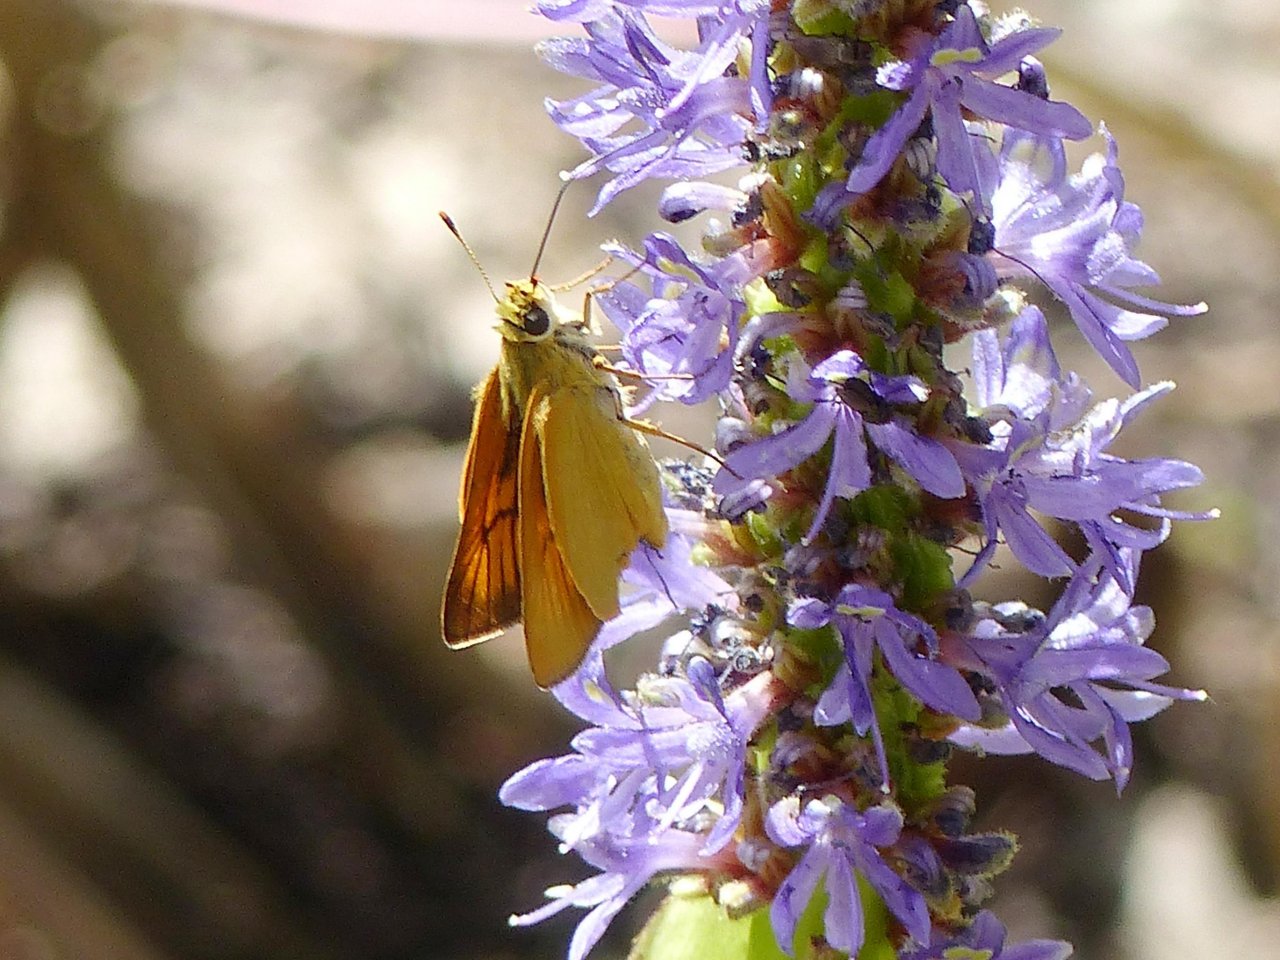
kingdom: Animalia
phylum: Arthropoda
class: Insecta
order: Lepidoptera
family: Hesperiidae
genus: Atrytone
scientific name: Atrytone delaware
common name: Delaware Skipper
